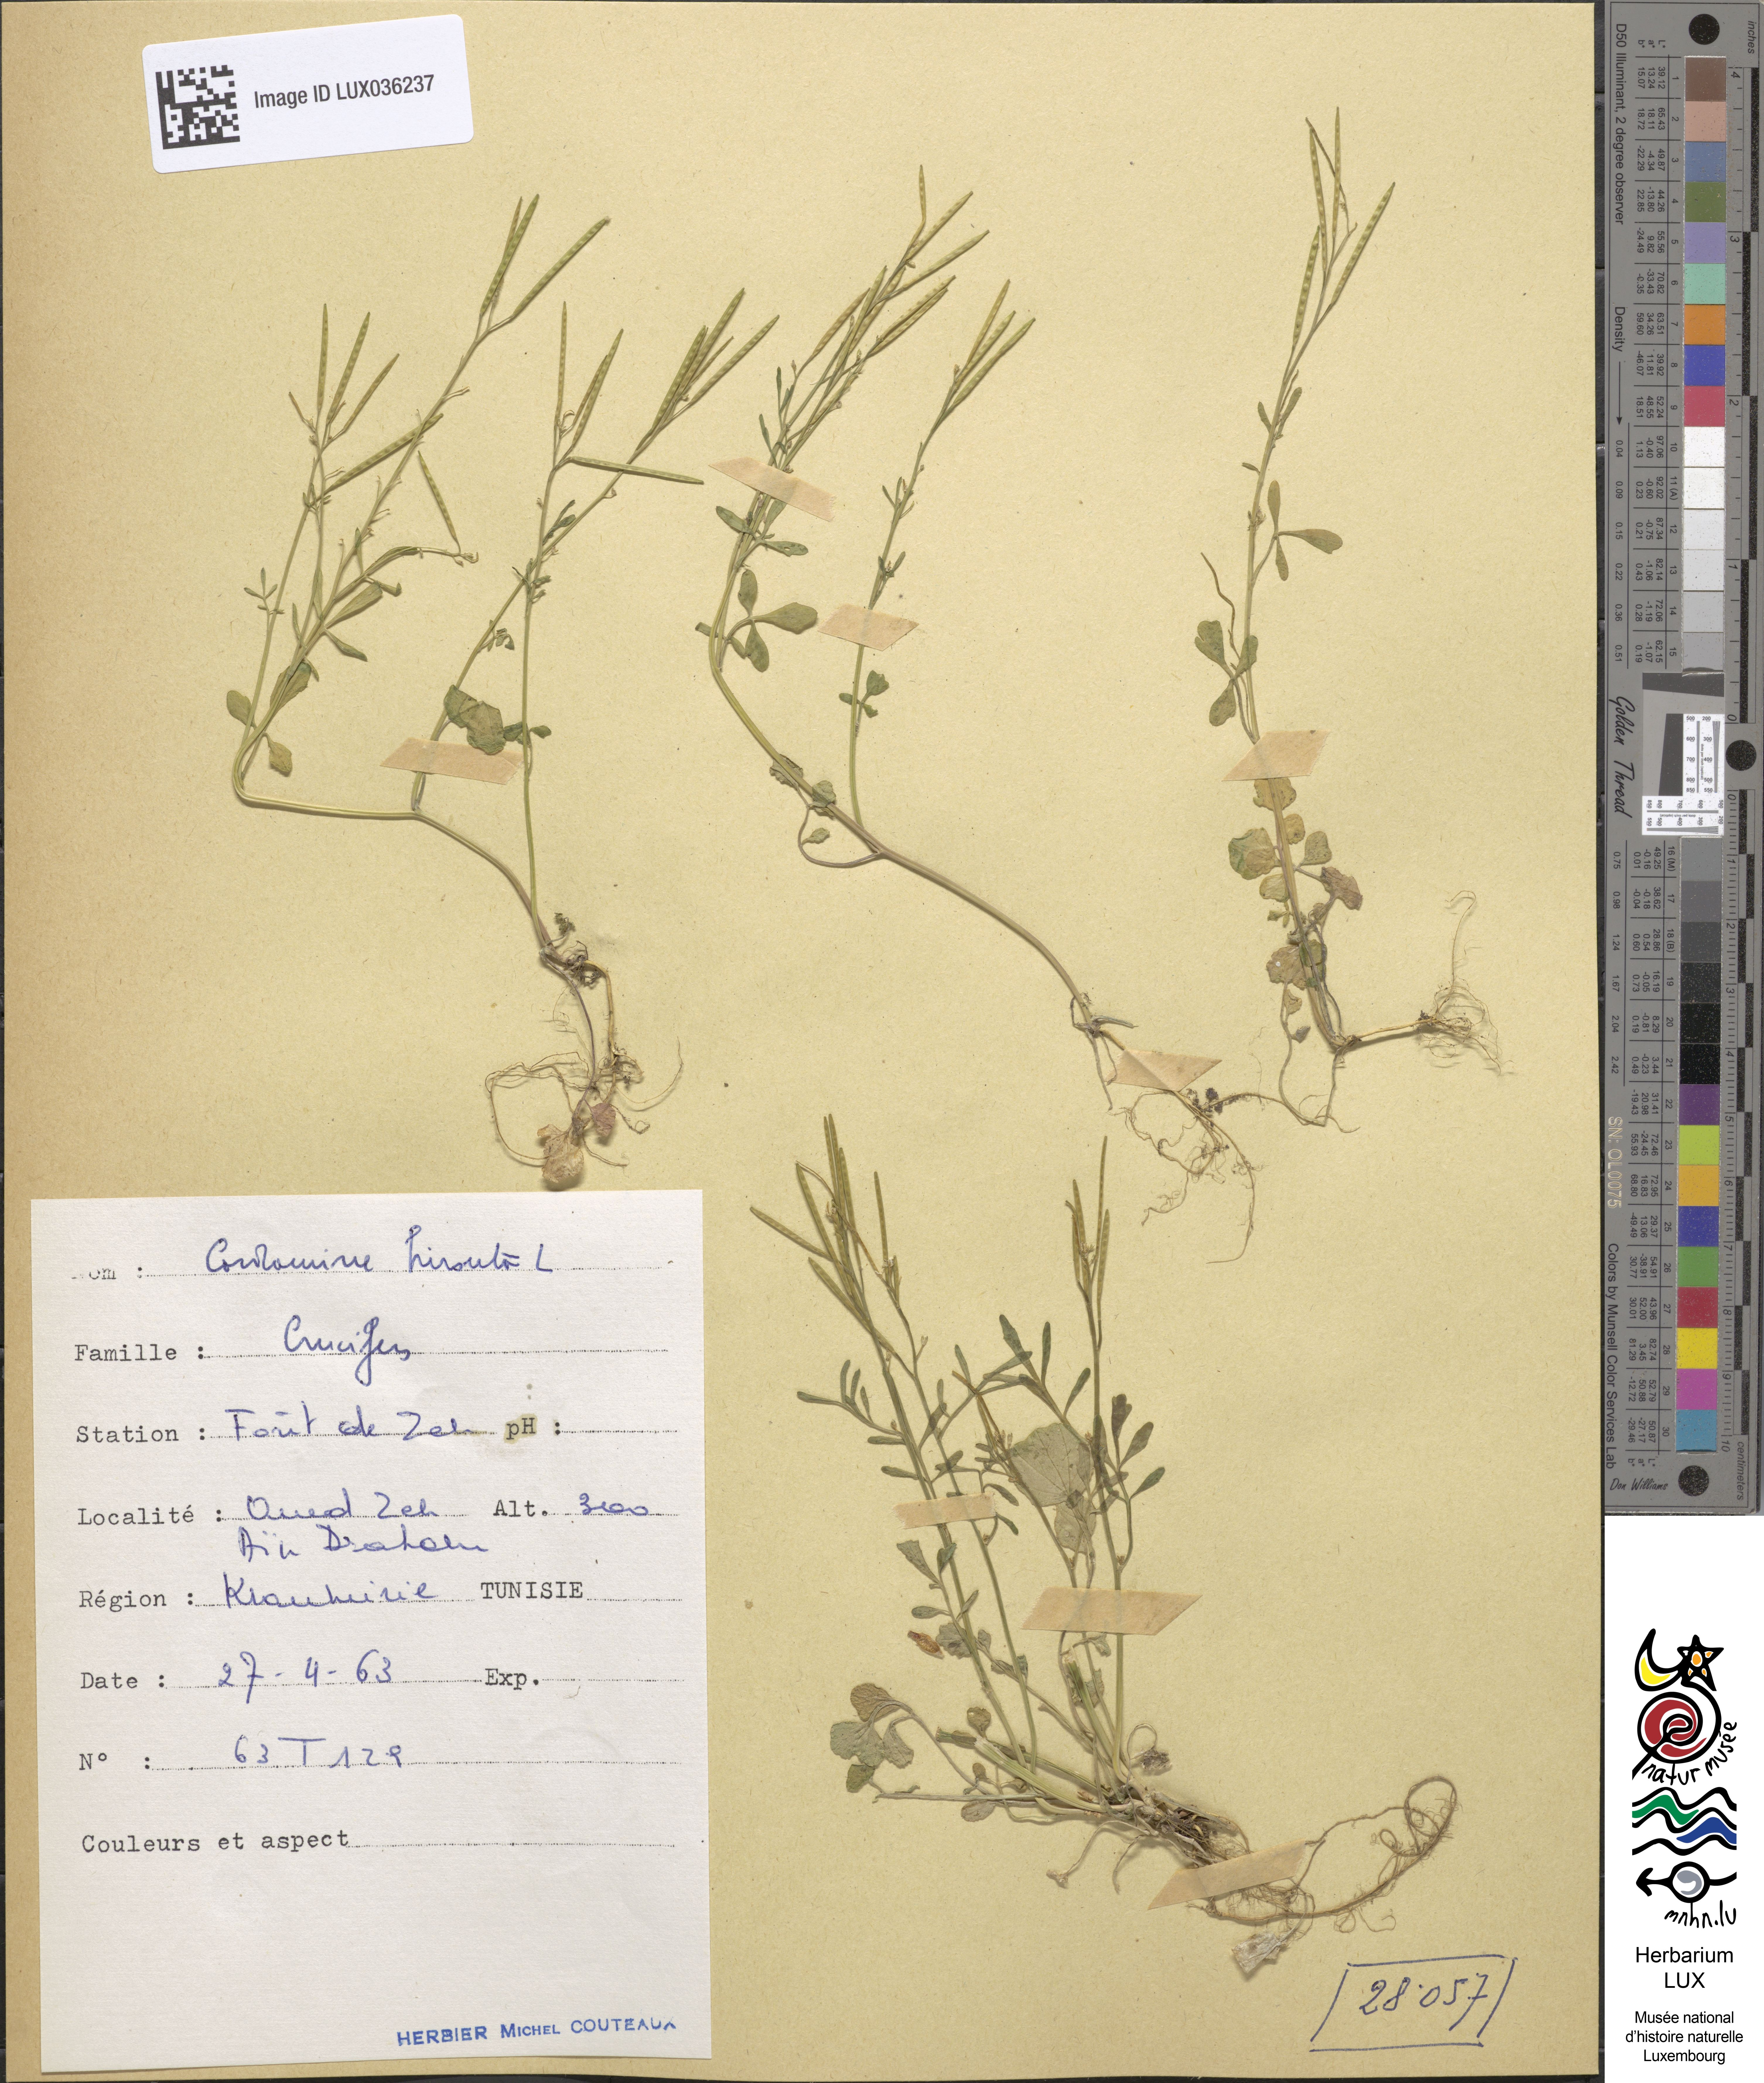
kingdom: Plantae
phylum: Tracheophyta
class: Magnoliopsida
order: Brassicales
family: Brassicaceae
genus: Cardamine
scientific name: Cardamine hirsuta
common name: Hairy bittercress
